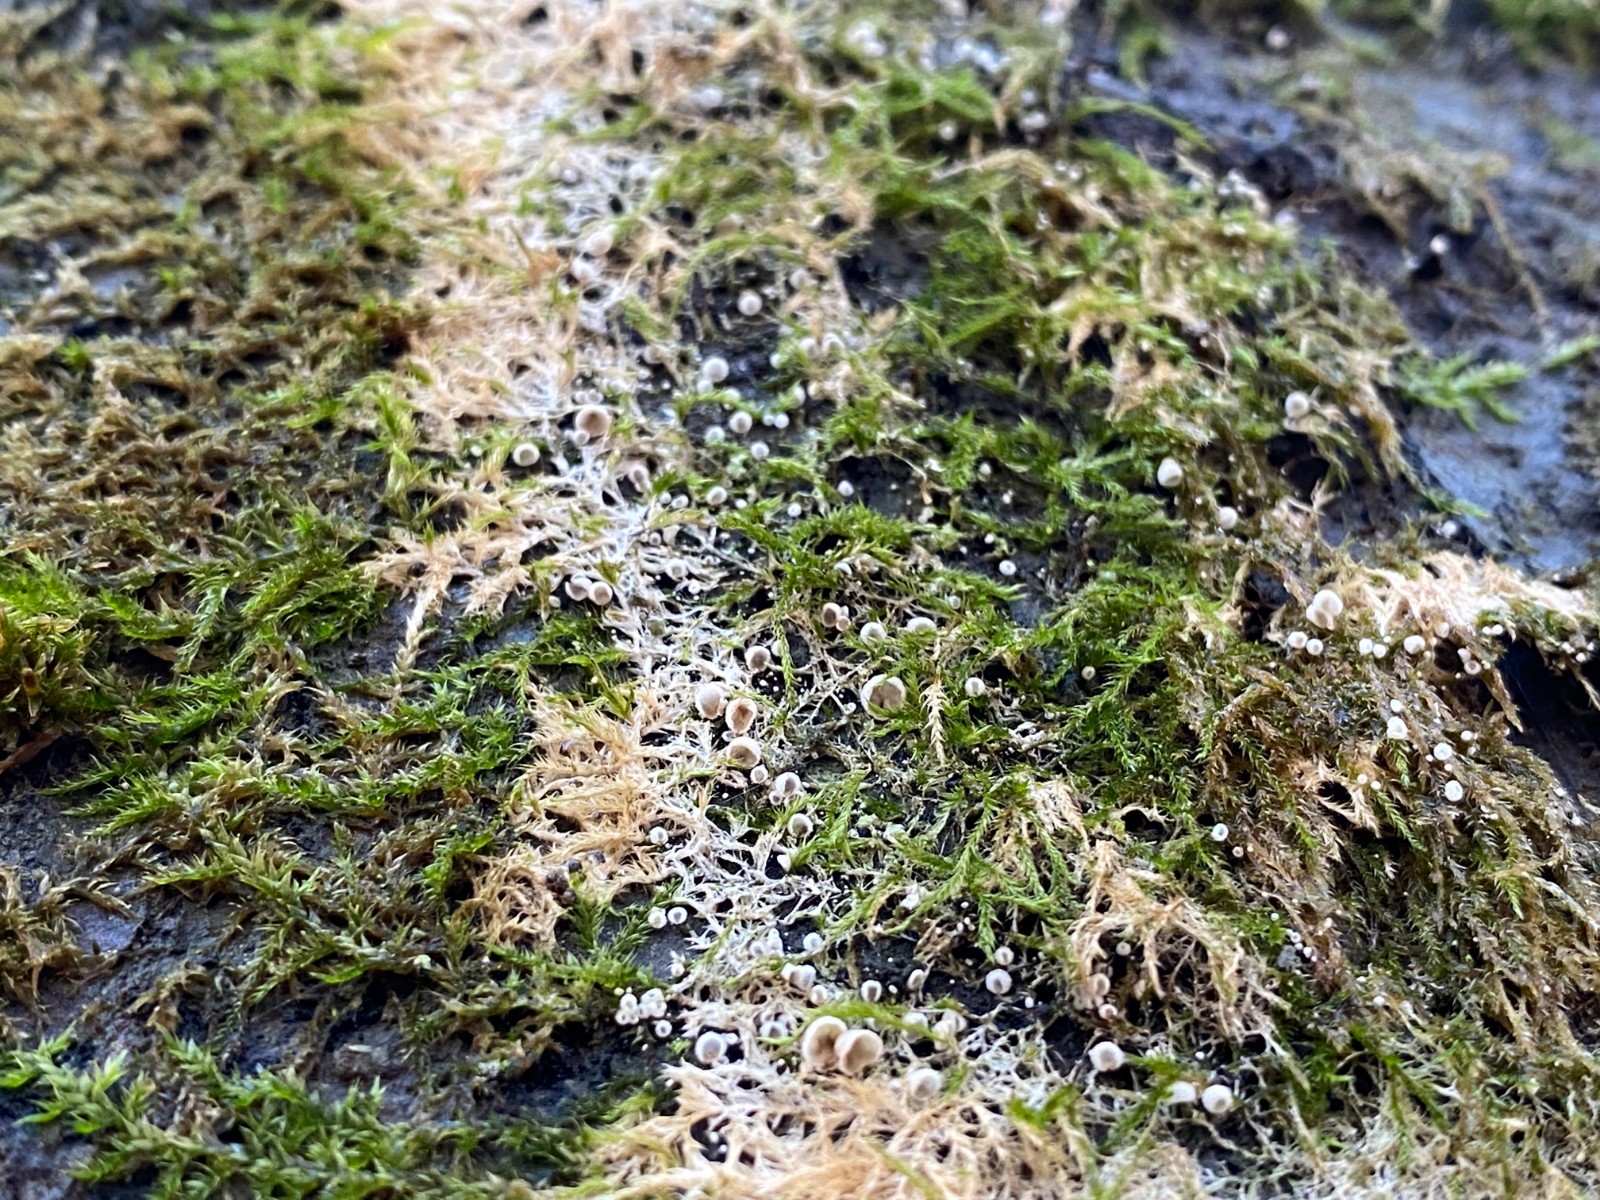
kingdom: Fungi
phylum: Basidiomycota
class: Agaricomycetes
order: Agaricales
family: Chromocyphellaceae
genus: Chromocyphella
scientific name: Chromocyphella muscicola
